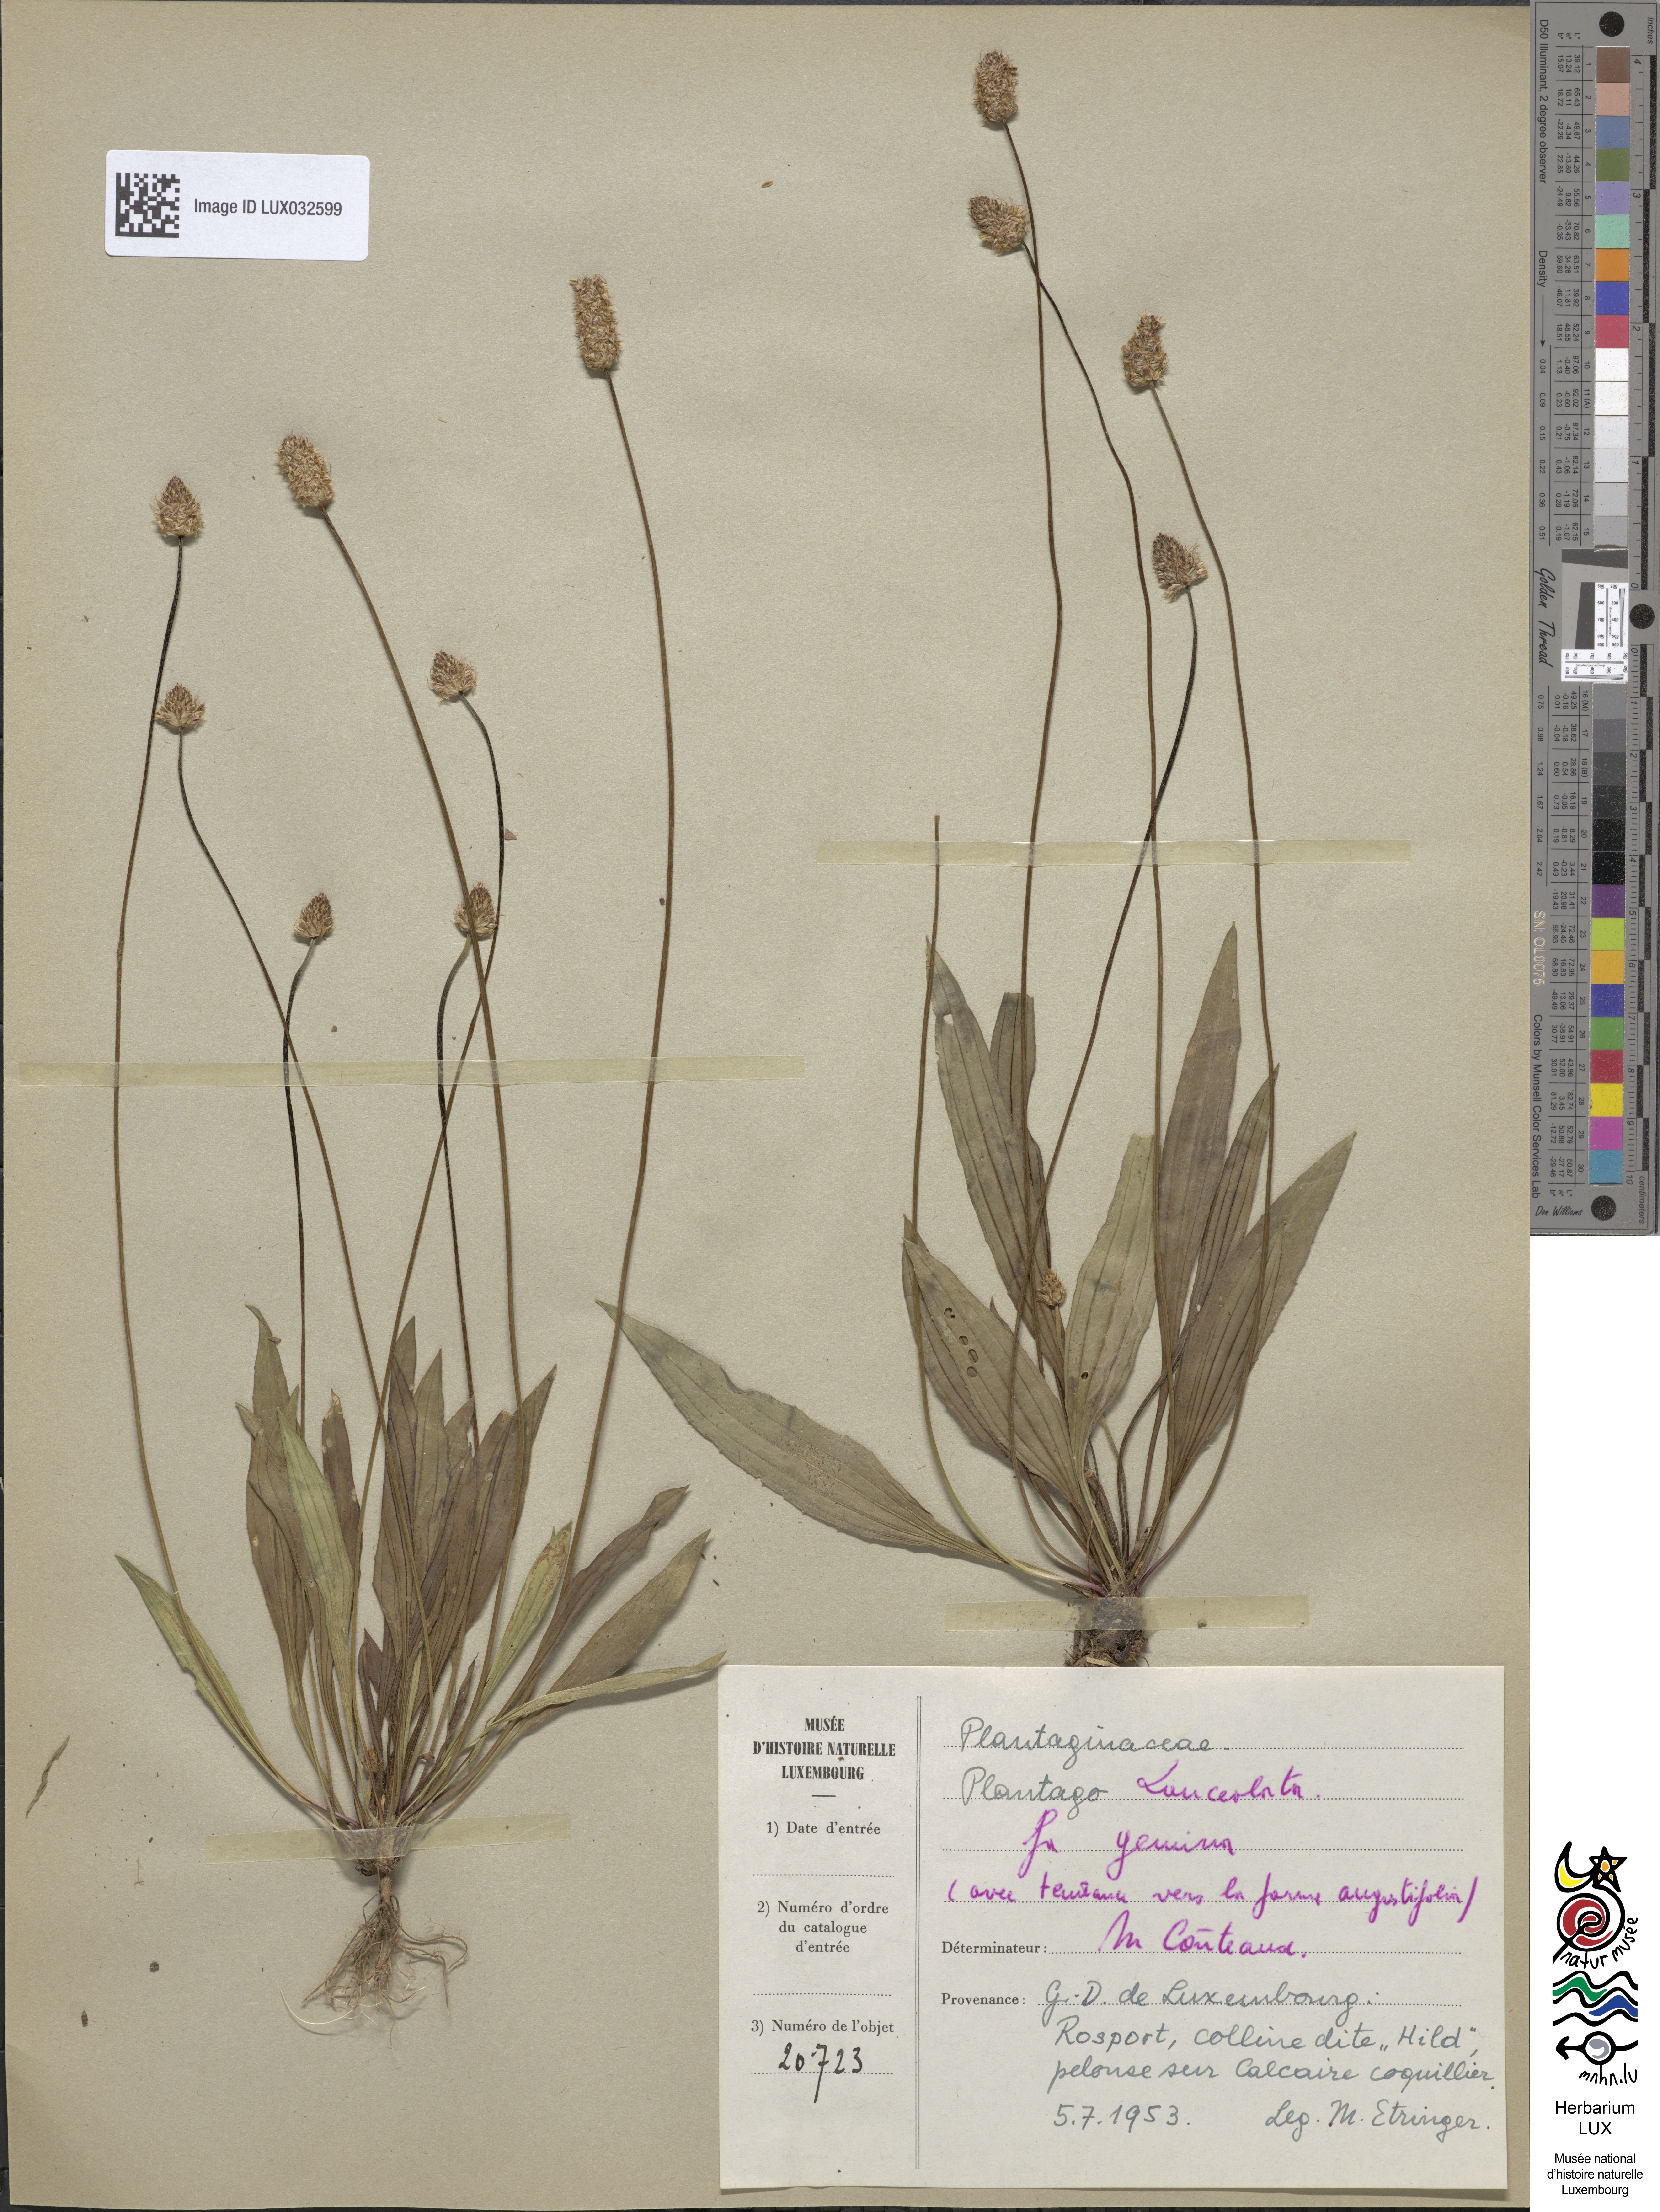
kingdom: Plantae
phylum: Tracheophyta
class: Magnoliopsida
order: Lamiales
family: Plantaginaceae
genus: Plantago
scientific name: Plantago lanceolata
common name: Ribwort plantain
